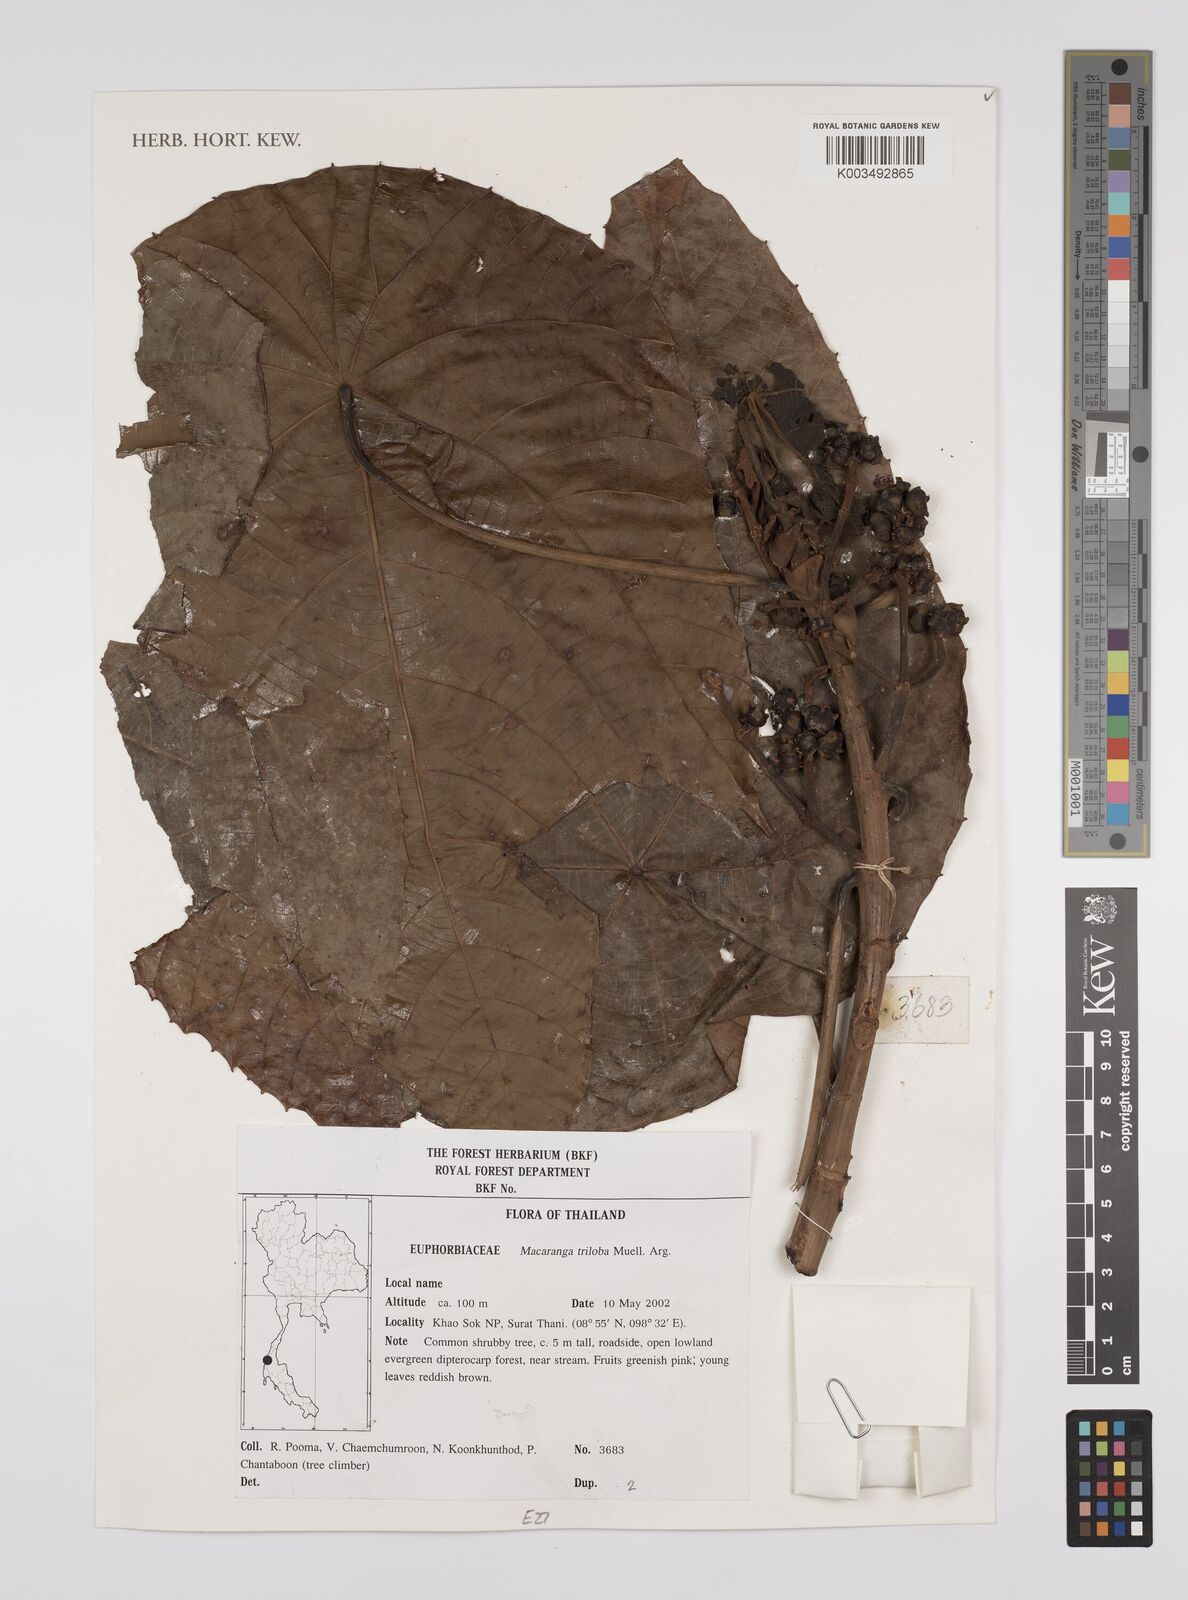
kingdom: Plantae
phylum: Tracheophyta
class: Magnoliopsida
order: Malpighiales
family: Euphorbiaceae
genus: Macaranga
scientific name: Macaranga triloba
